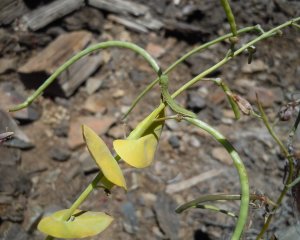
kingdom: Animalia
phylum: Arthropoda
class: Insecta
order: Lepidoptera
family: Pieridae
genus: Euchloe
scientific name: Euchloe hyantis
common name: California Marble
